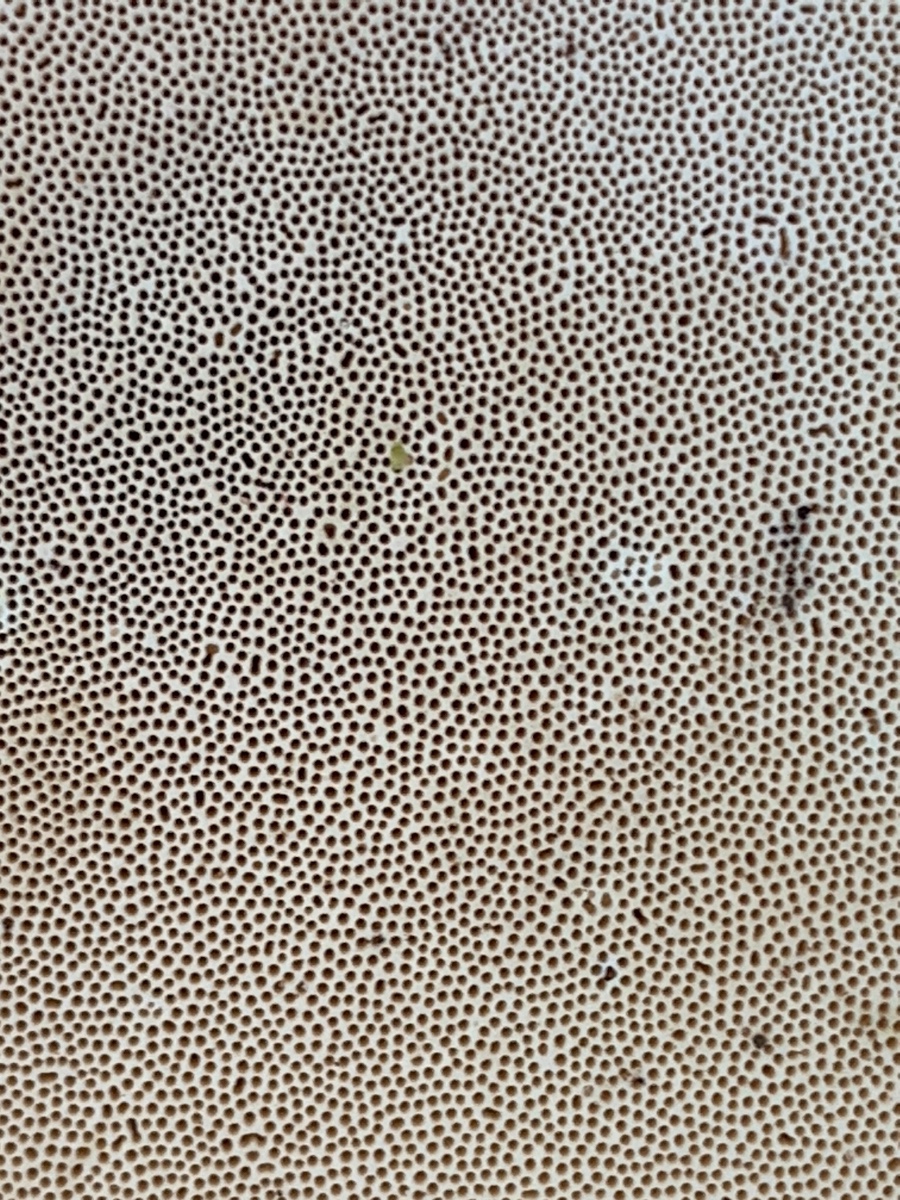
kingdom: Fungi
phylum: Basidiomycota
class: Agaricomycetes
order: Polyporales
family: Fomitopsidaceae
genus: Fomitopsis
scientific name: Fomitopsis pinicola
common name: randbæltet hovporesvamp
